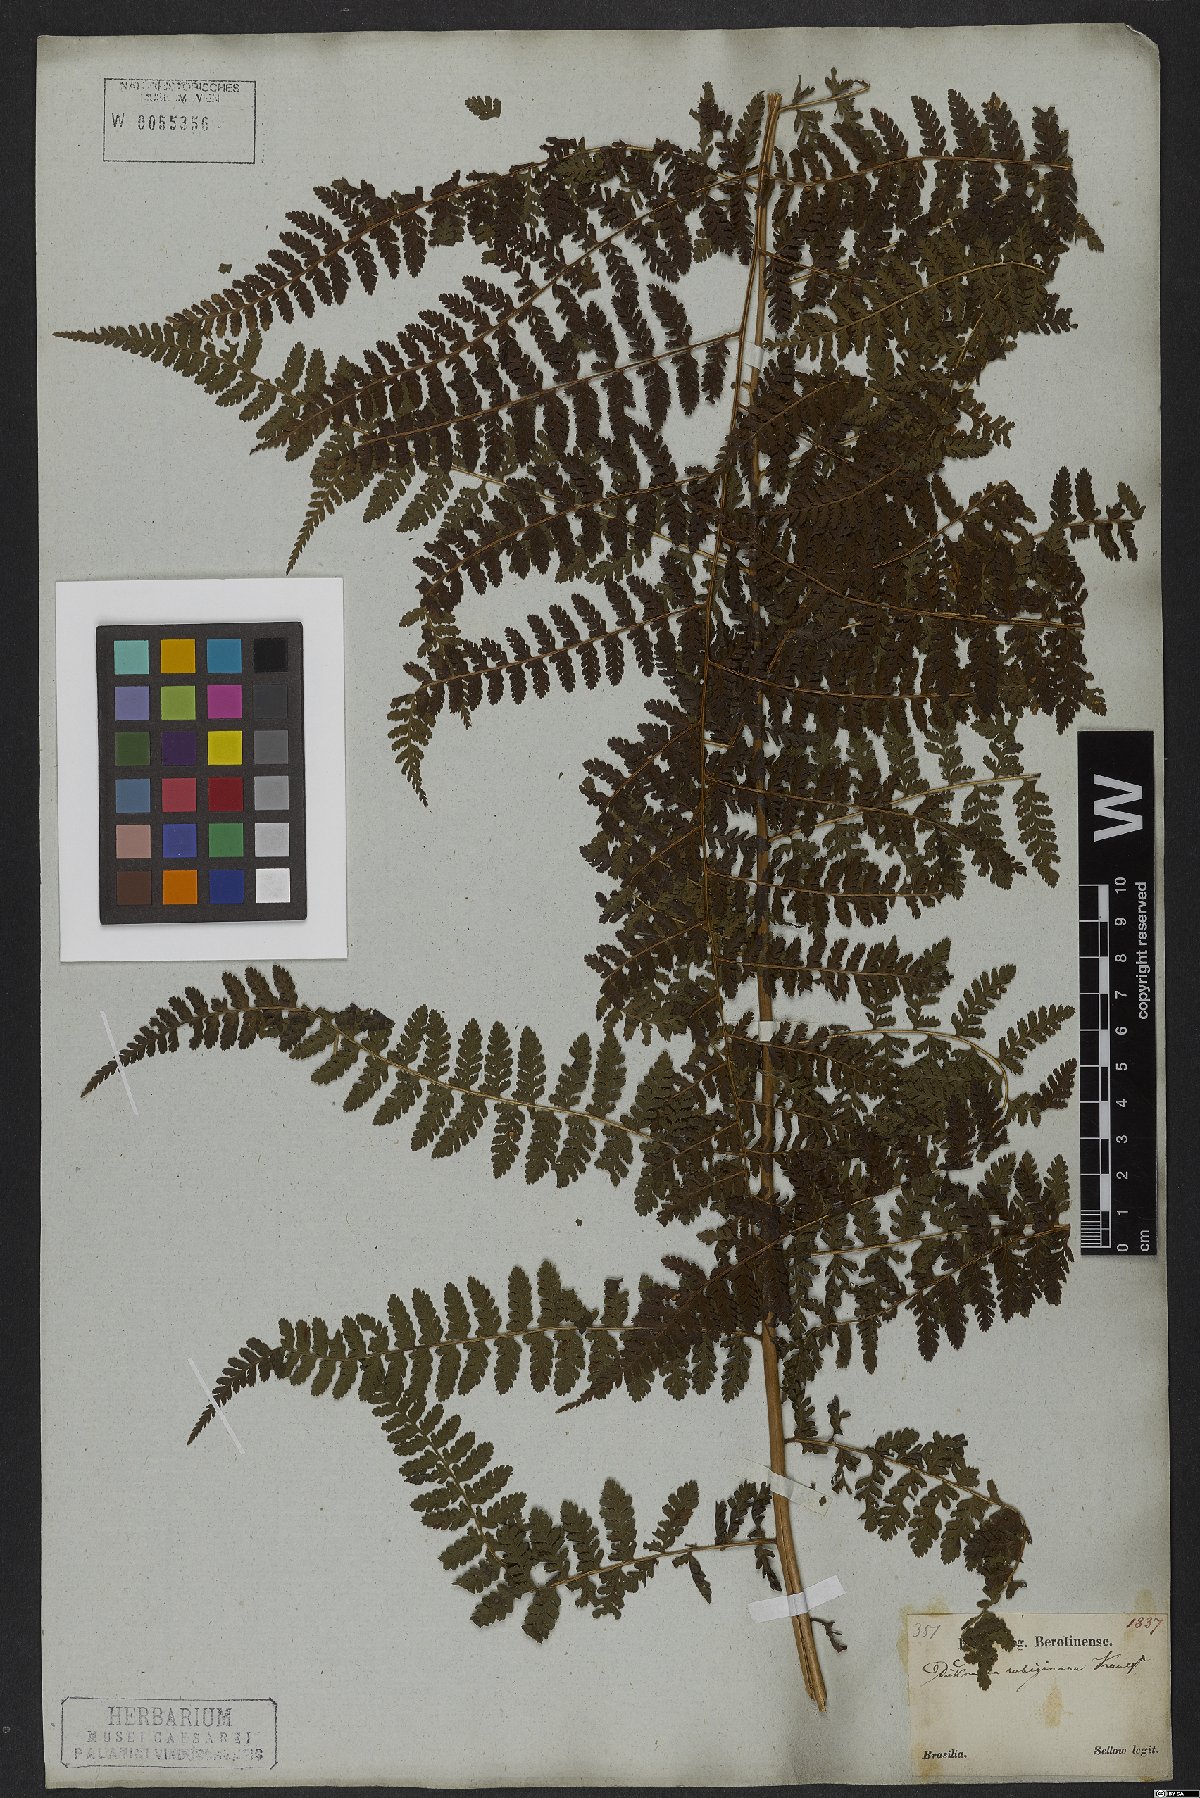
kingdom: Plantae
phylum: Tracheophyta
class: Polypodiopsida
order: Polypodiales
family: Dennstaedtiaceae
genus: Dennstaedtia
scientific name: Dennstaedtia cicutaria
